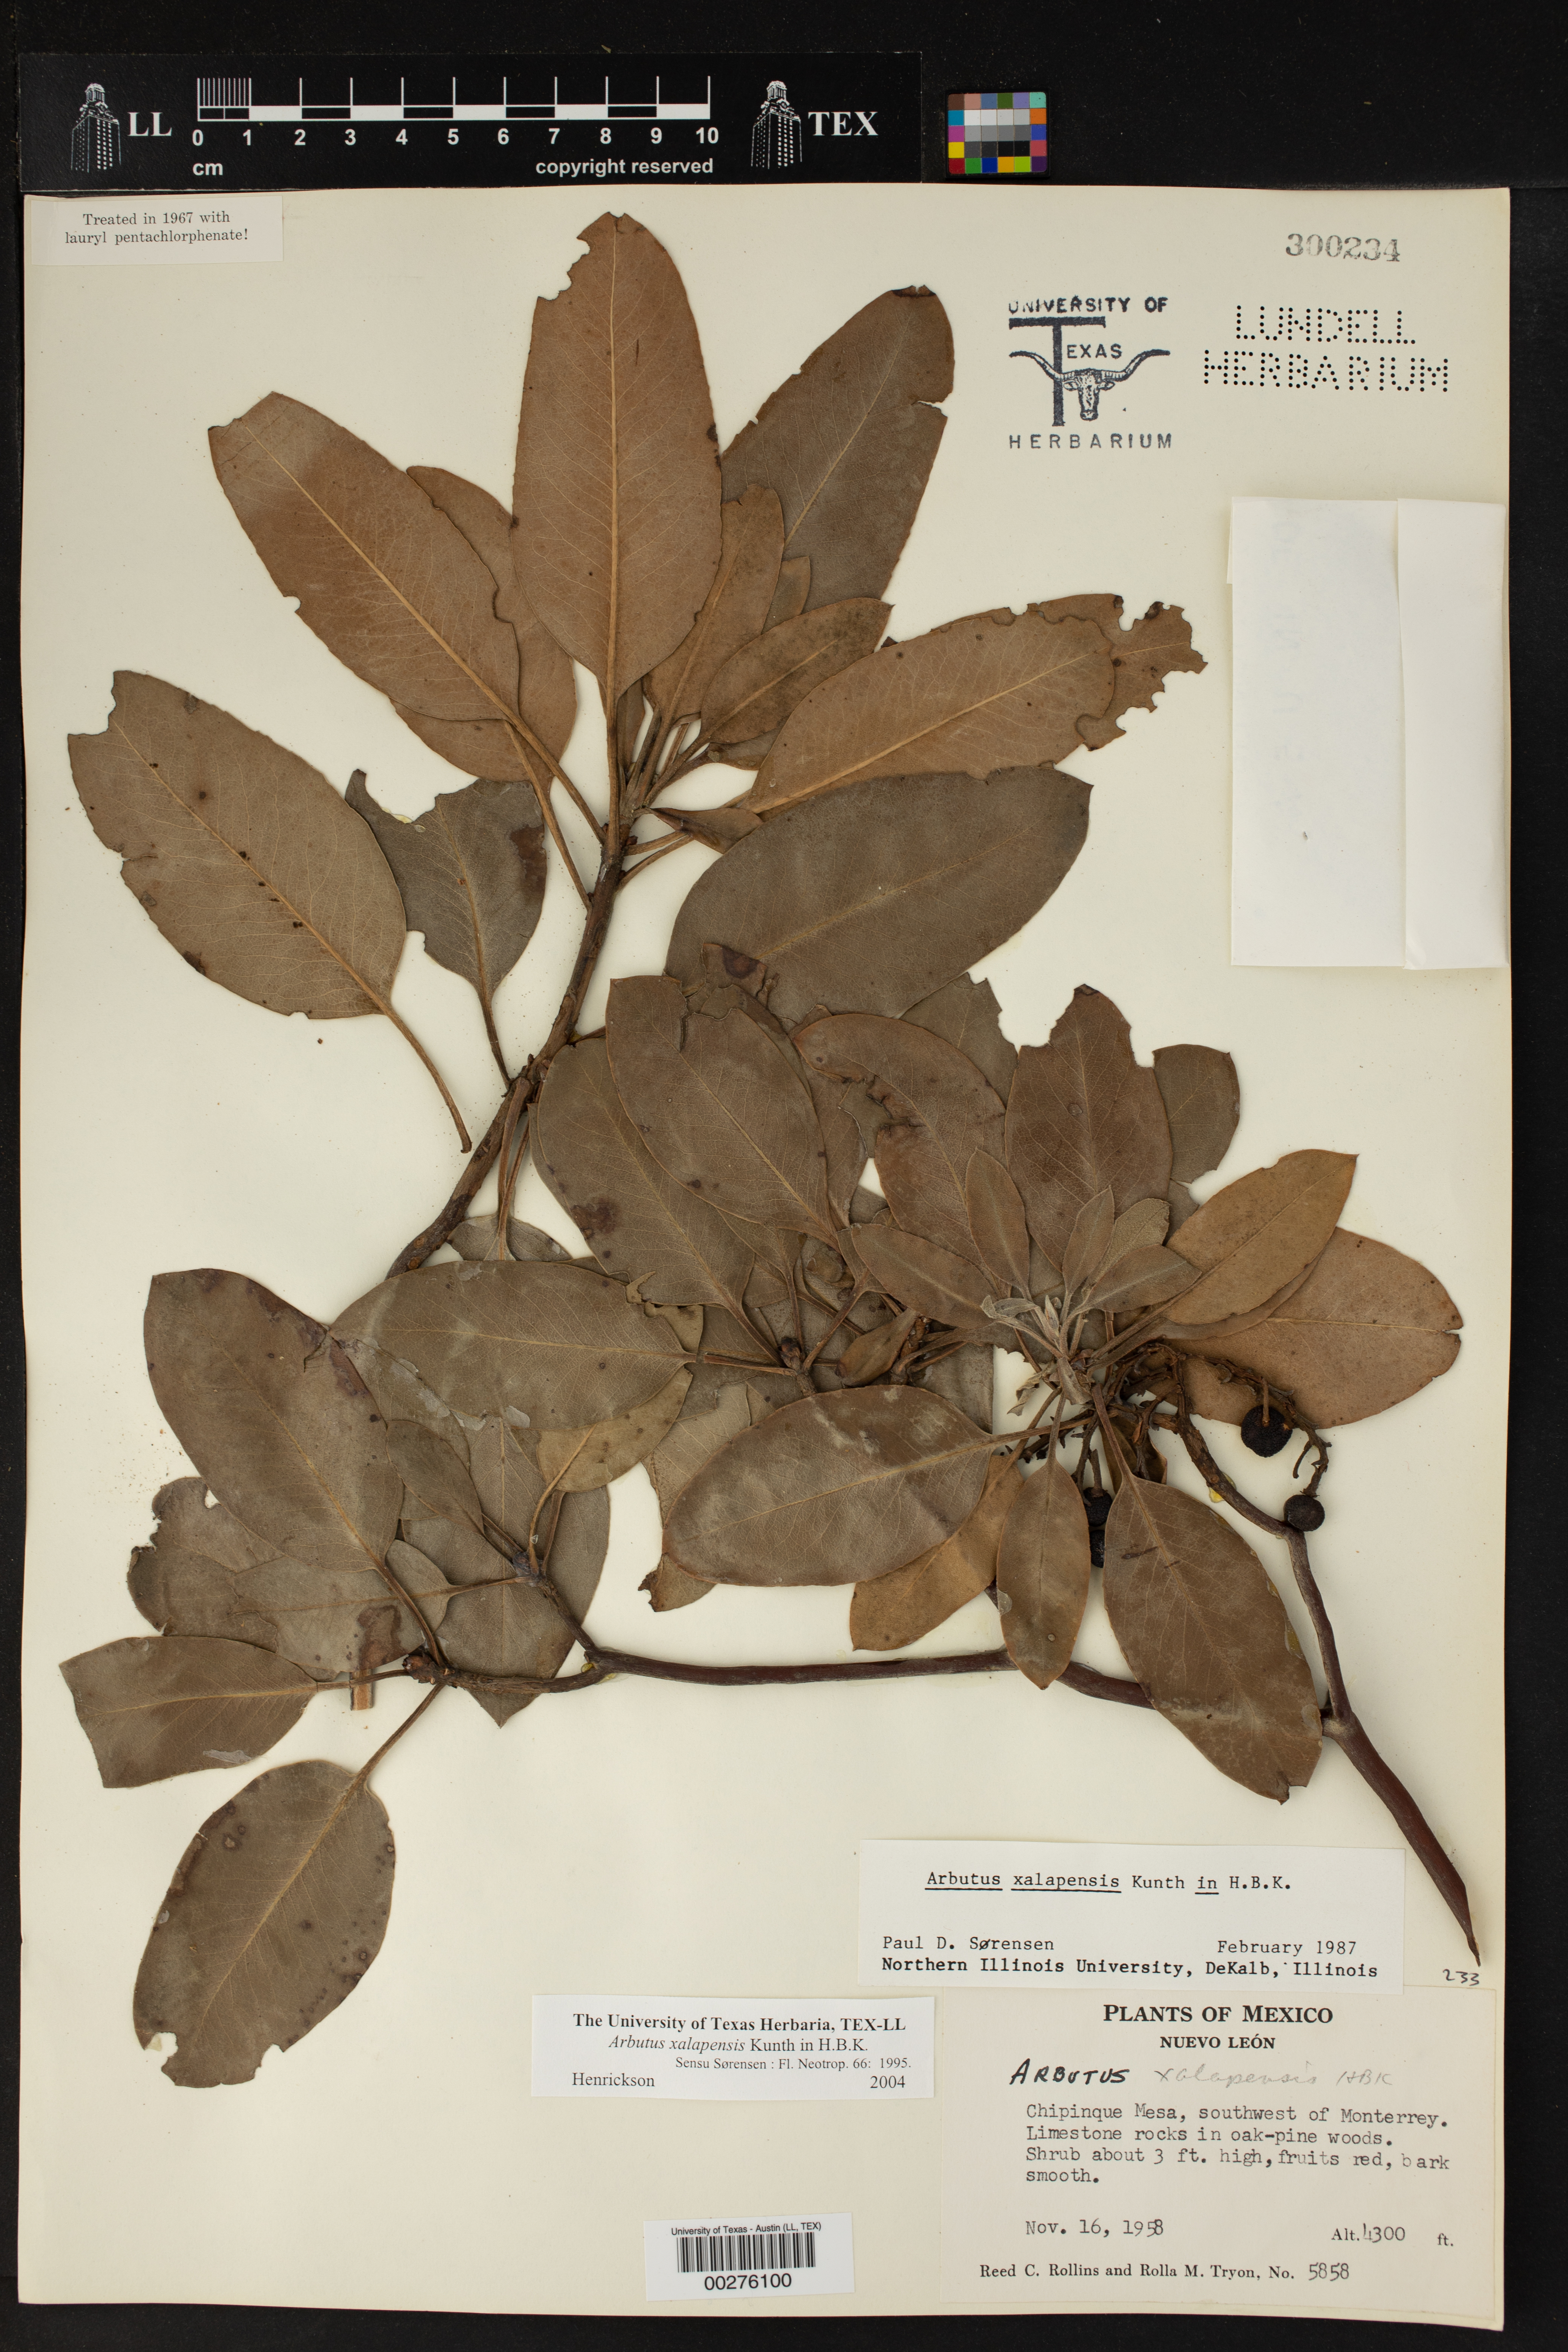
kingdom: Plantae
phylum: Tracheophyta
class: Magnoliopsida
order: Ericales
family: Ericaceae
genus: Arbutus
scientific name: Arbutus xalapensis
